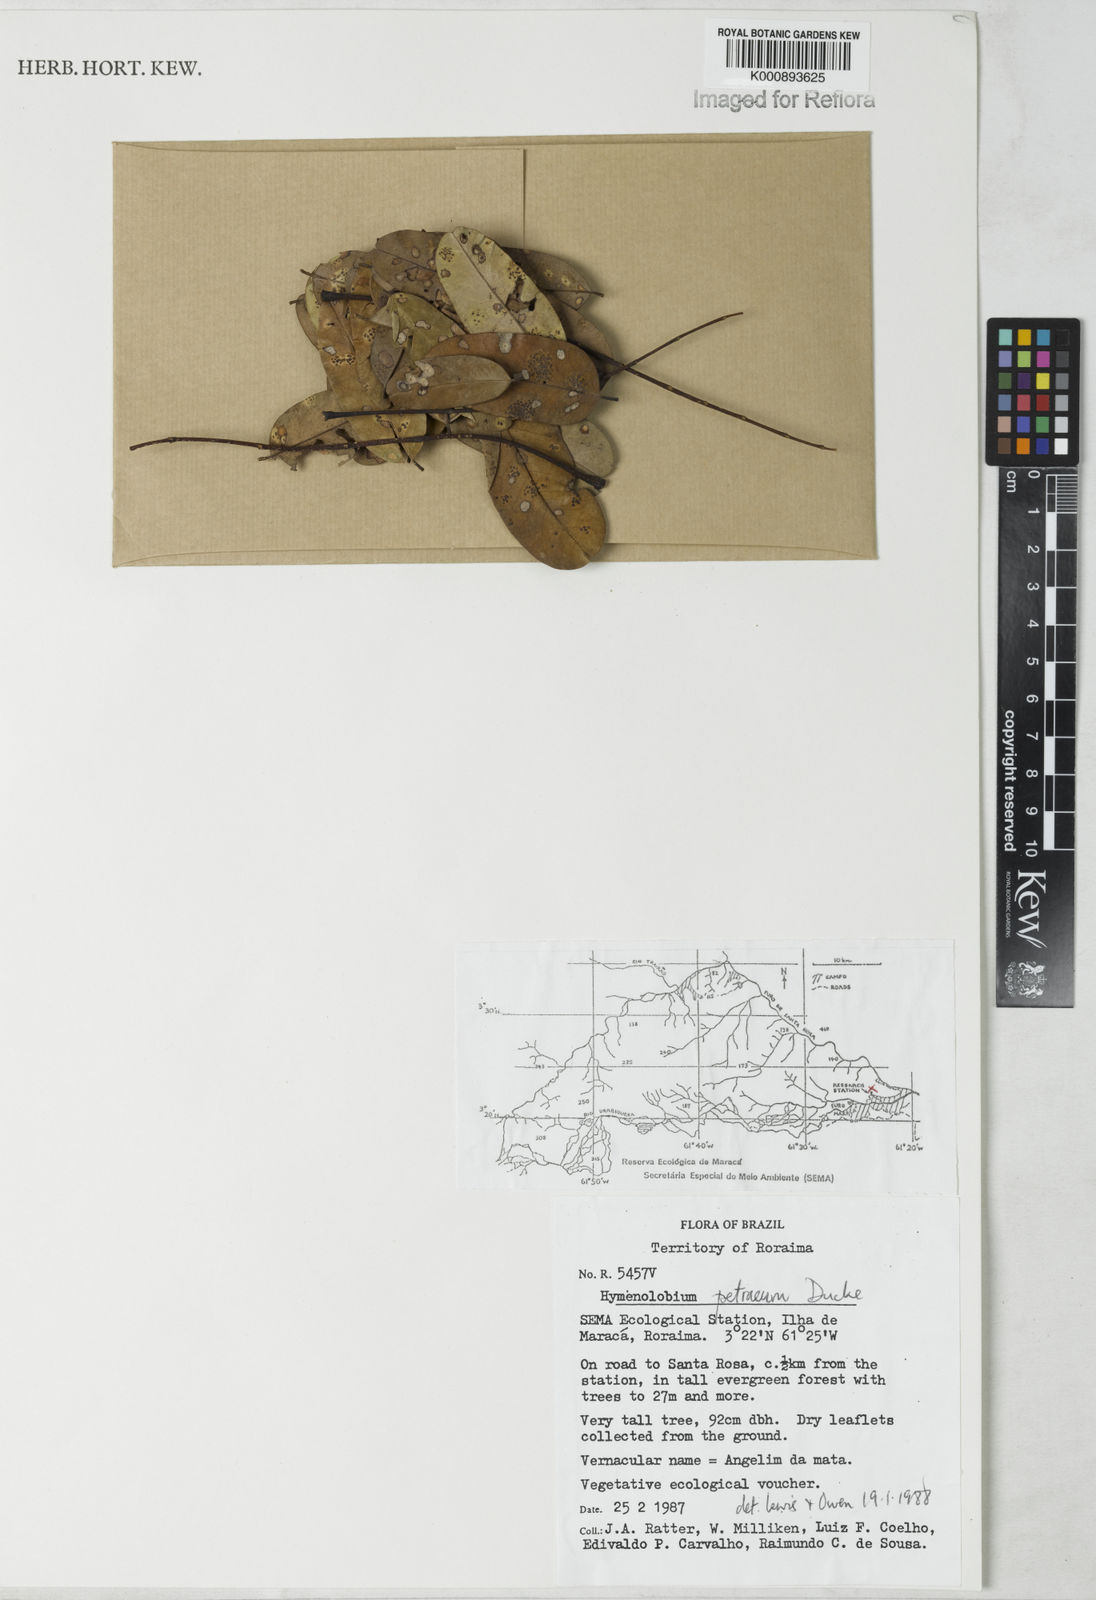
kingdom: Plantae
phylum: Tracheophyta
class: Magnoliopsida
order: Fabales
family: Fabaceae
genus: Hymenolobium
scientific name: Hymenolobium petraeum
